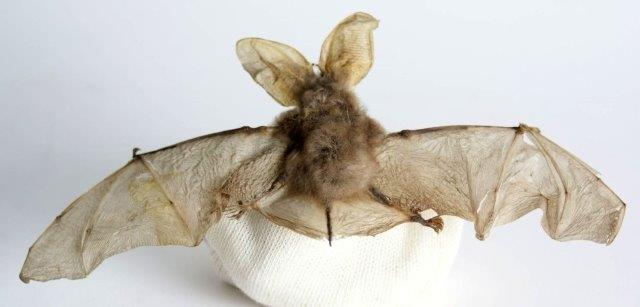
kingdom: Animalia
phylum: Chordata
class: Mammalia
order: Chiroptera
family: Vespertilionidae
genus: Plecotus
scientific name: Plecotus auritus
